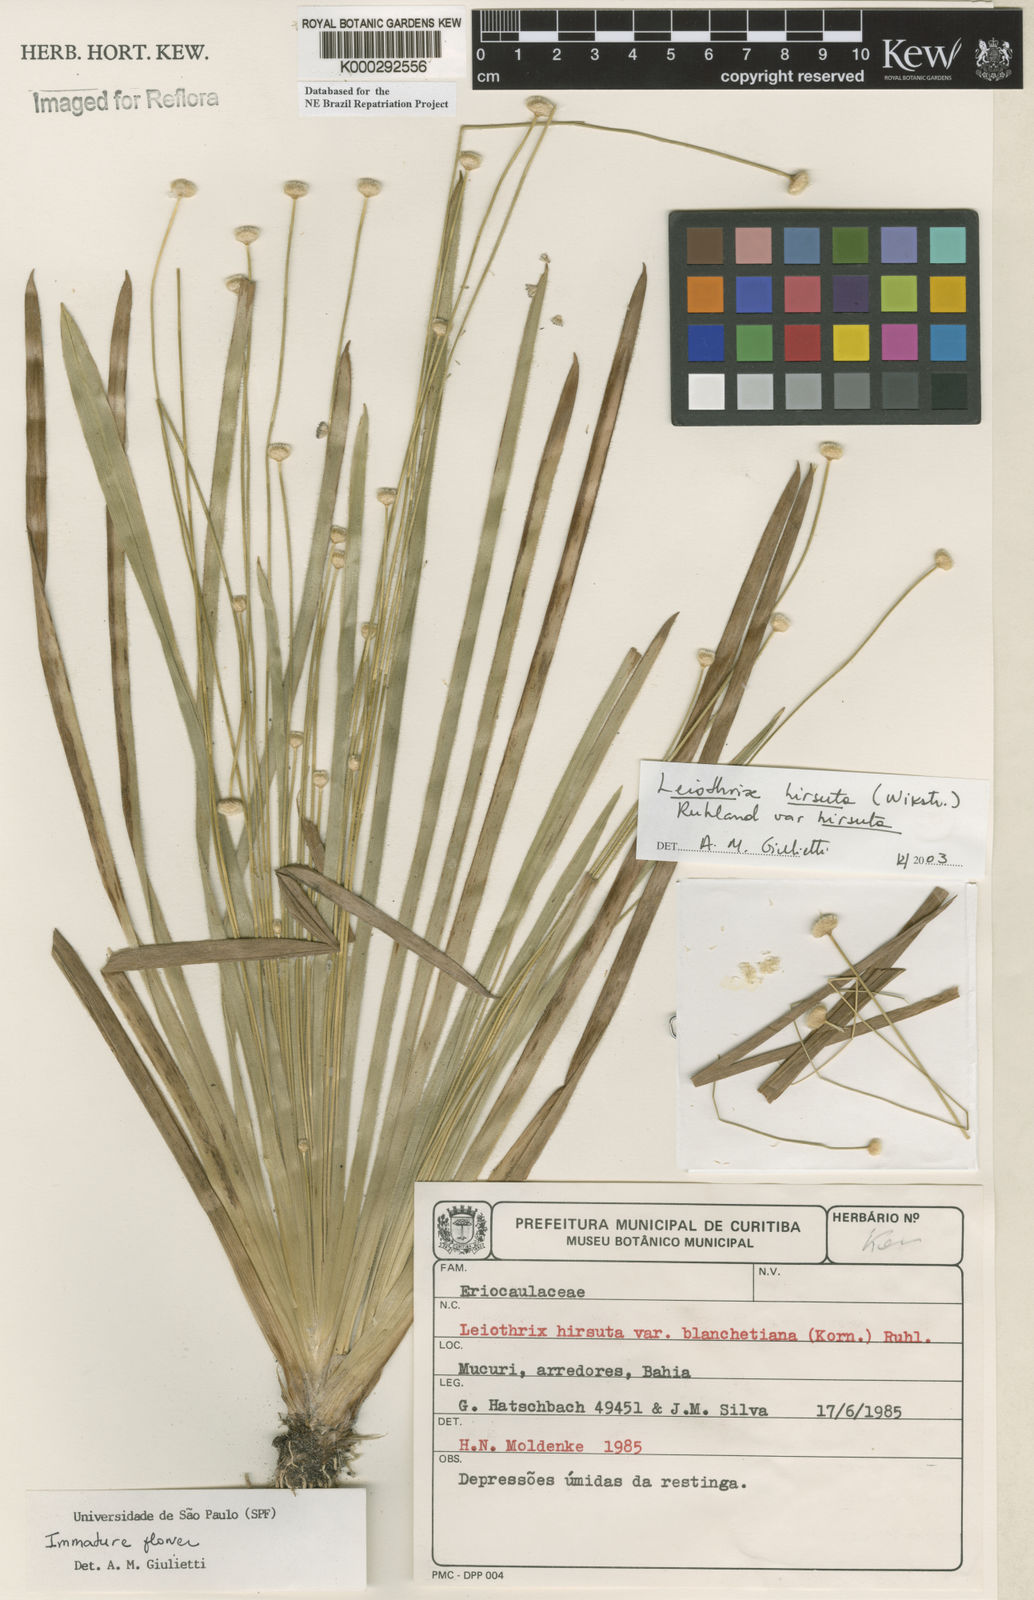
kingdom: Plantae
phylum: Tracheophyta
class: Liliopsida
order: Poales
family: Eriocaulaceae
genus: Leiothrix
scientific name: Leiothrix hirsuta
